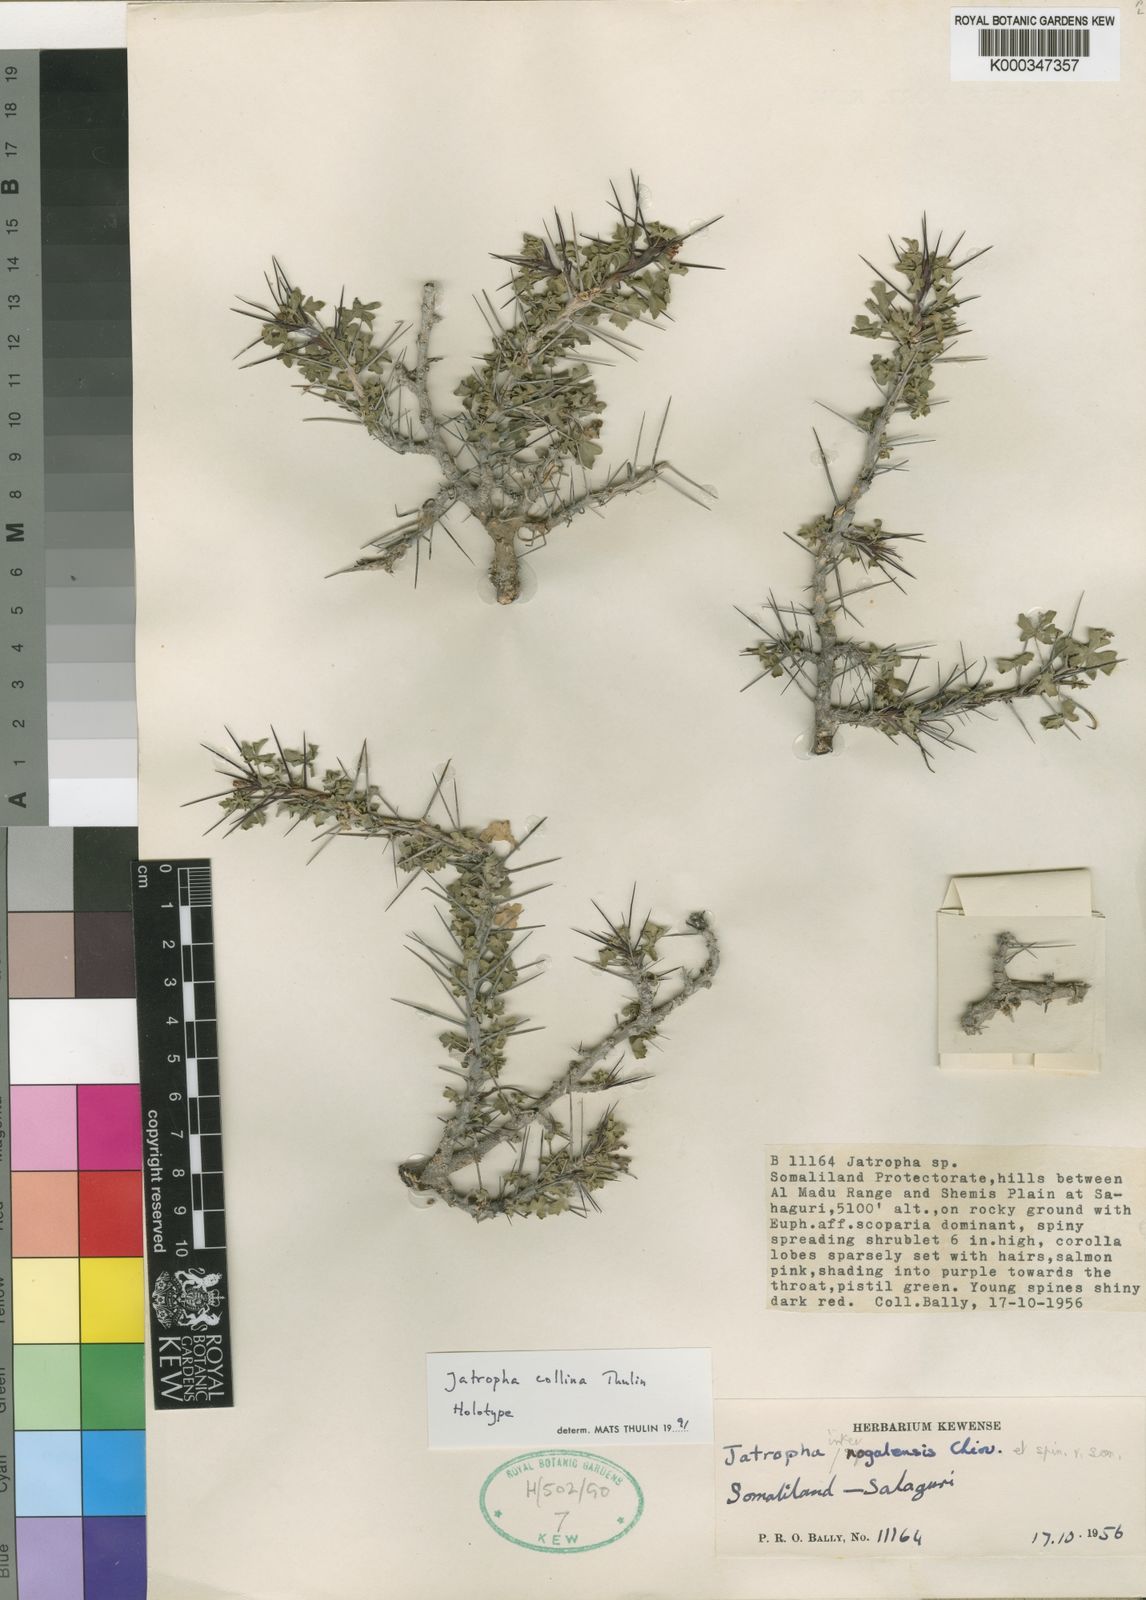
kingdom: Plantae
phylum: Tracheophyta
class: Magnoliopsida
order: Malpighiales
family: Euphorbiaceae
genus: Jatropha
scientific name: Jatropha collina
